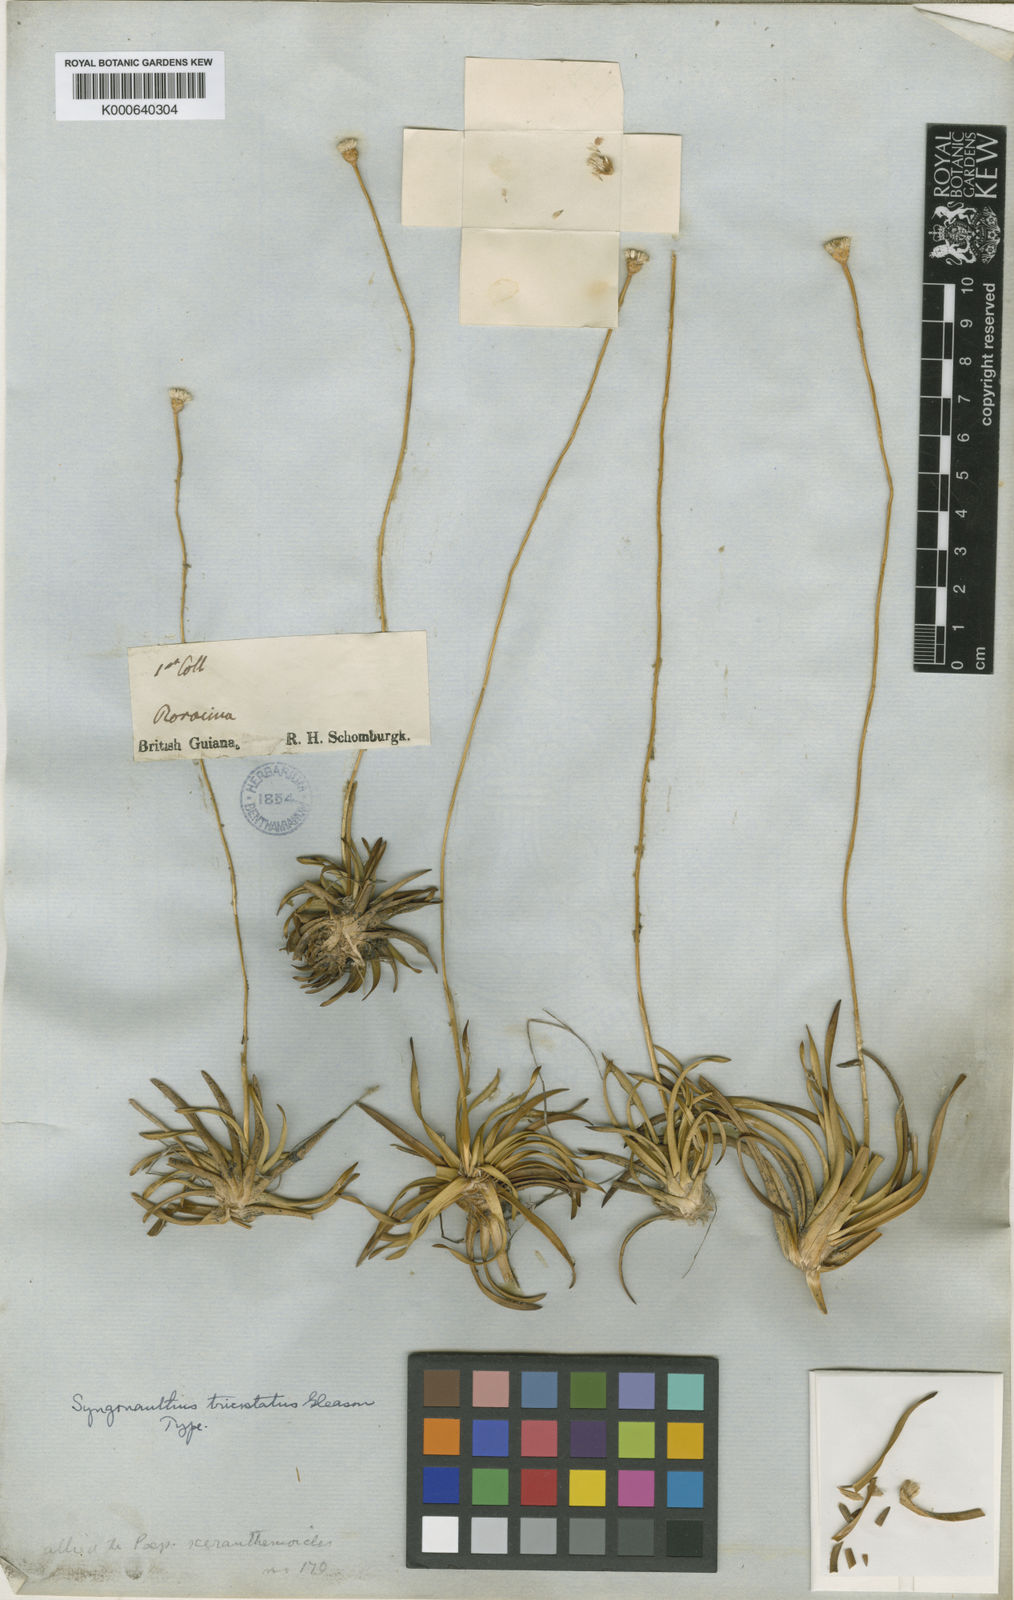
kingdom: Plantae
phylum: Tracheophyta
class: Liliopsida
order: Poales
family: Eriocaulaceae
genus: Comanthera
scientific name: Comanthera tricostata
